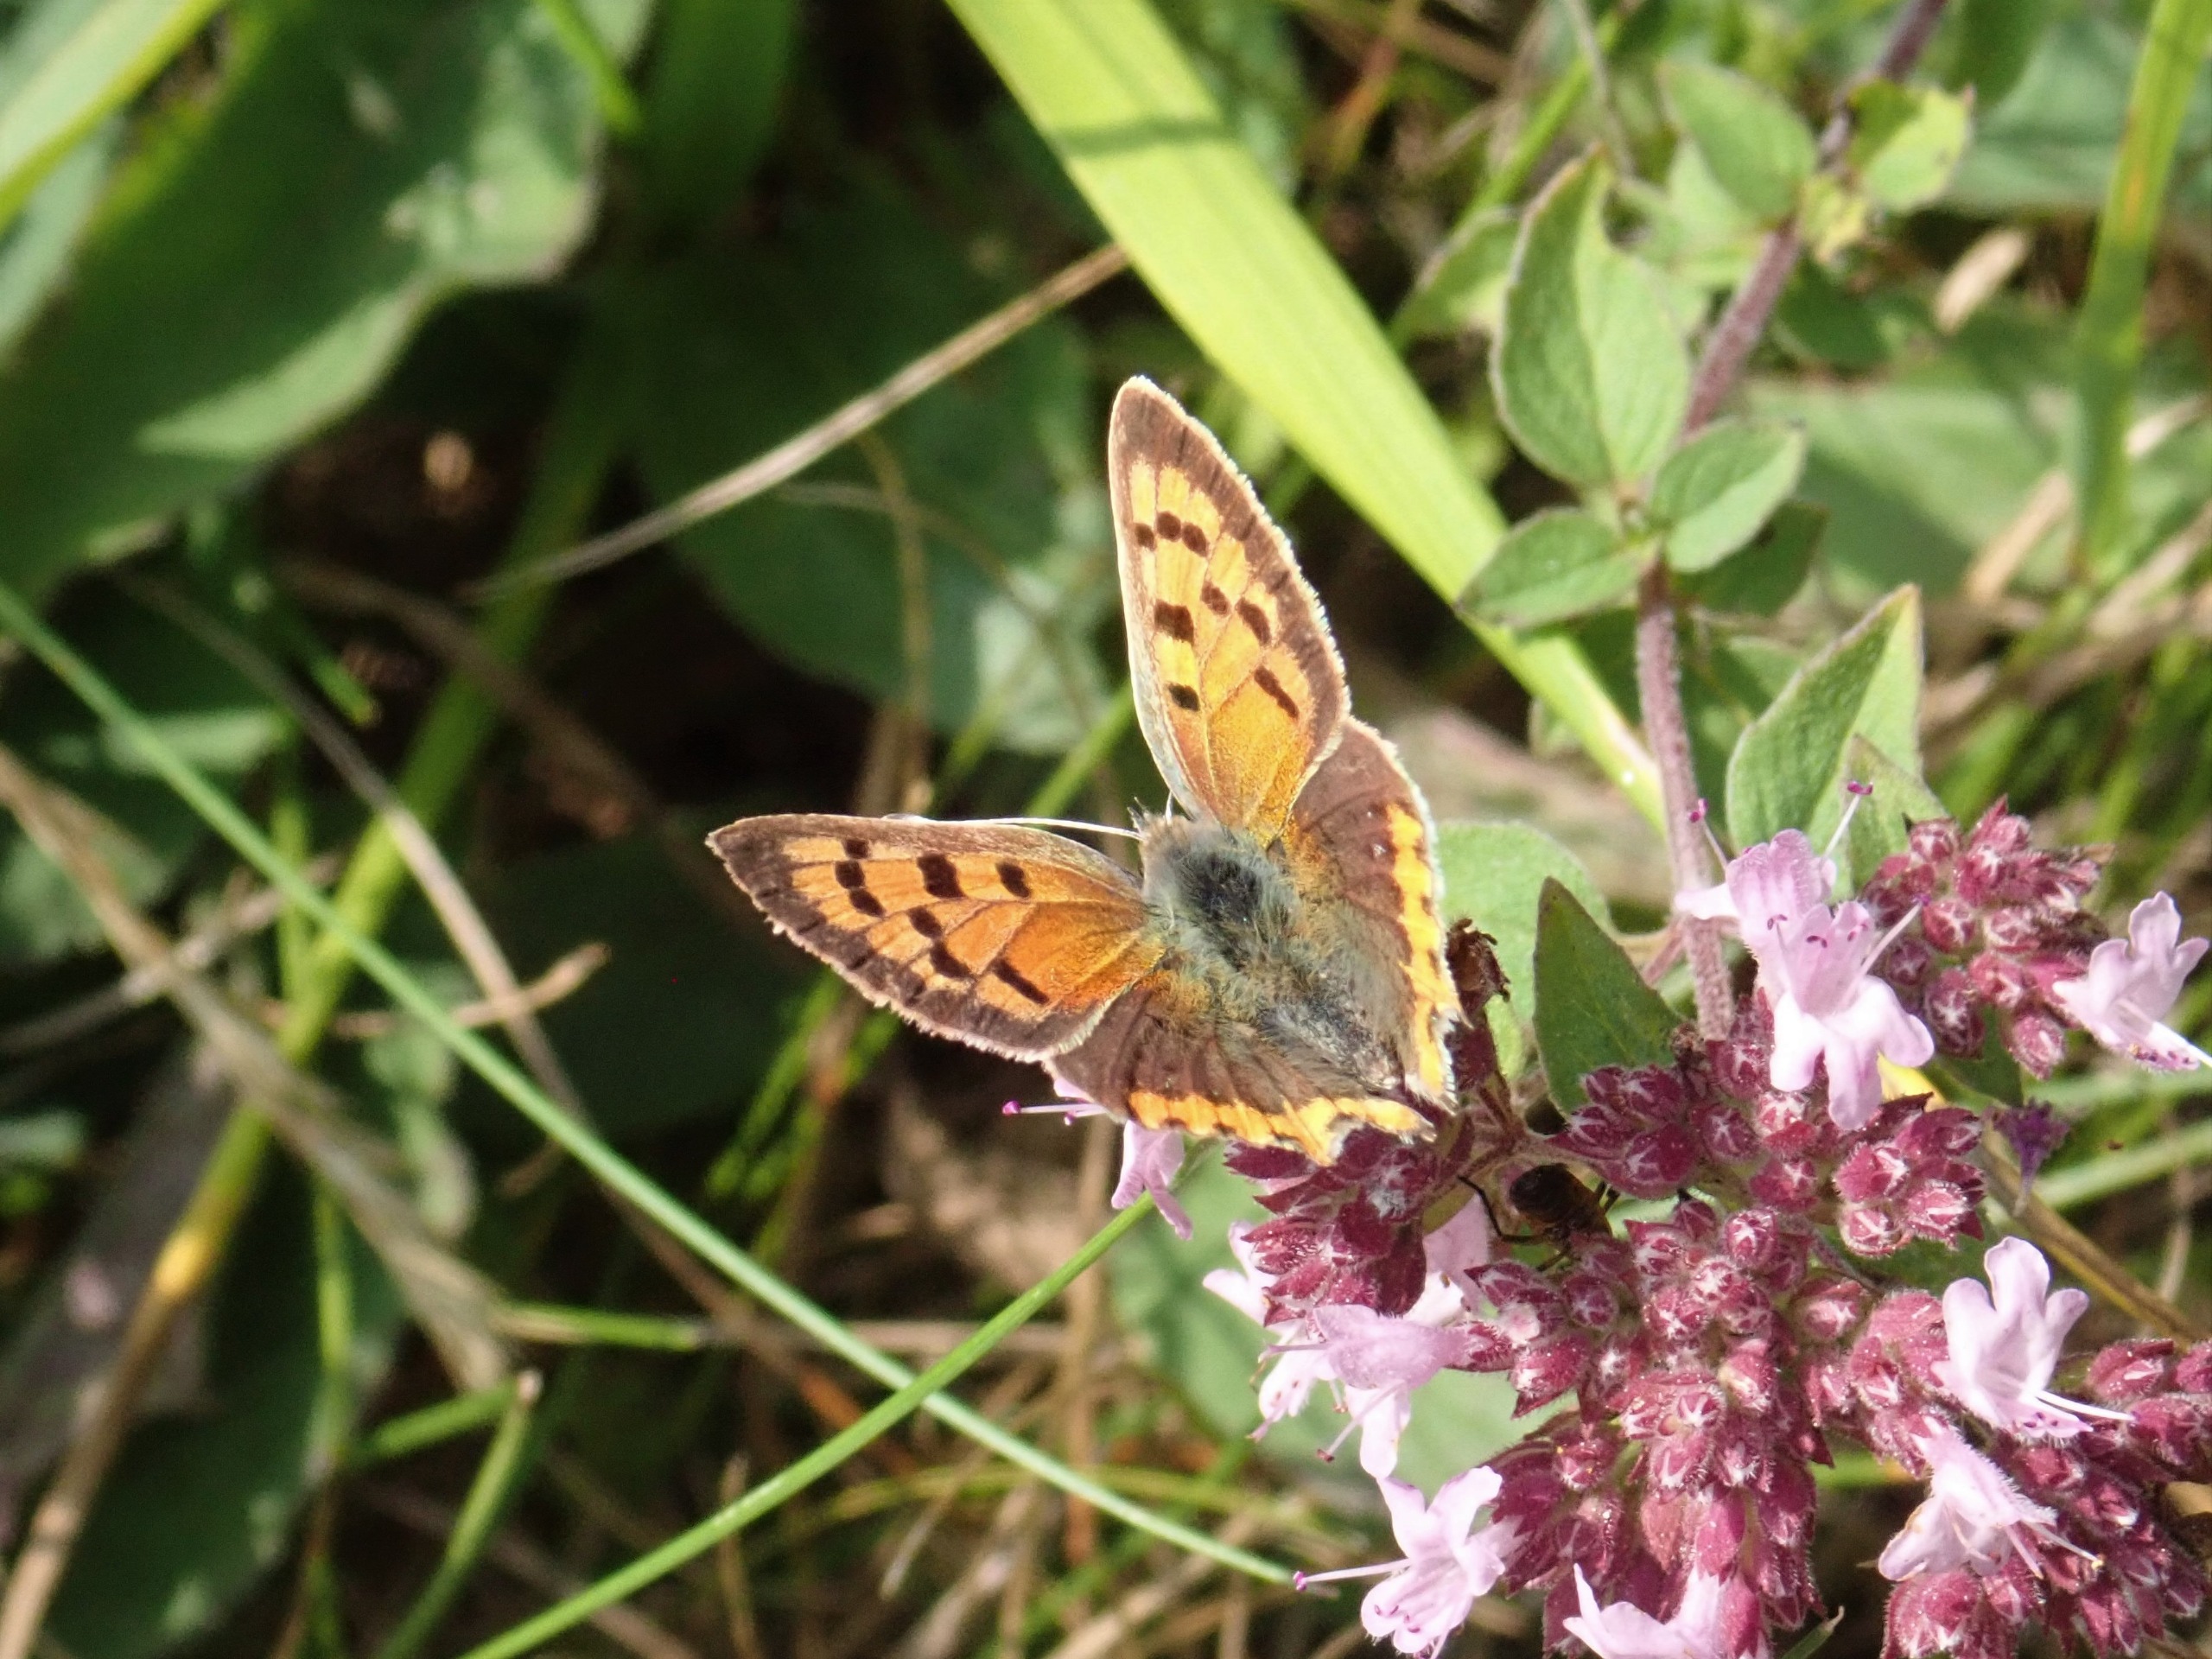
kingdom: Animalia
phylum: Arthropoda
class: Insecta
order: Lepidoptera
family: Lycaenidae
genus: Lycaena
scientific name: Lycaena phlaeas
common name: Lille ildfugl
